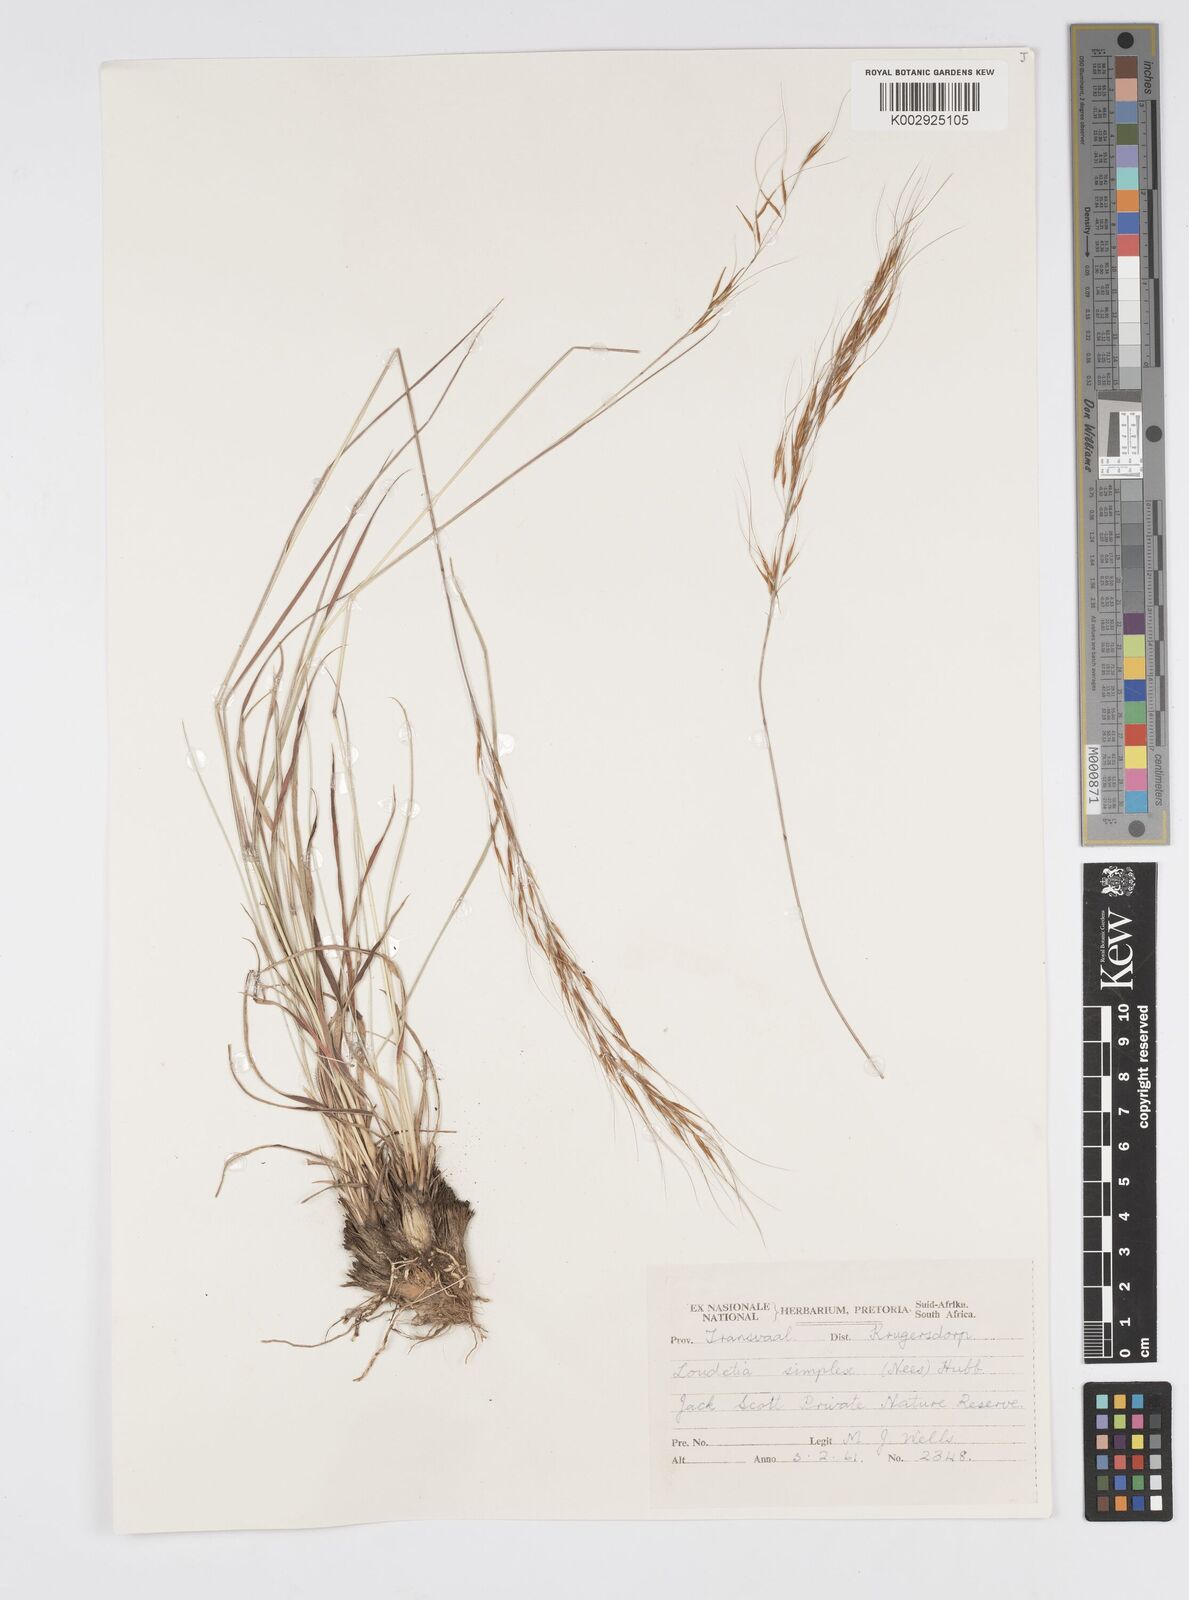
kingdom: Plantae
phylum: Tracheophyta
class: Liliopsida
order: Poales
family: Poaceae
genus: Loudetia
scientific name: Loudetia simplex
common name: Common russet grass
